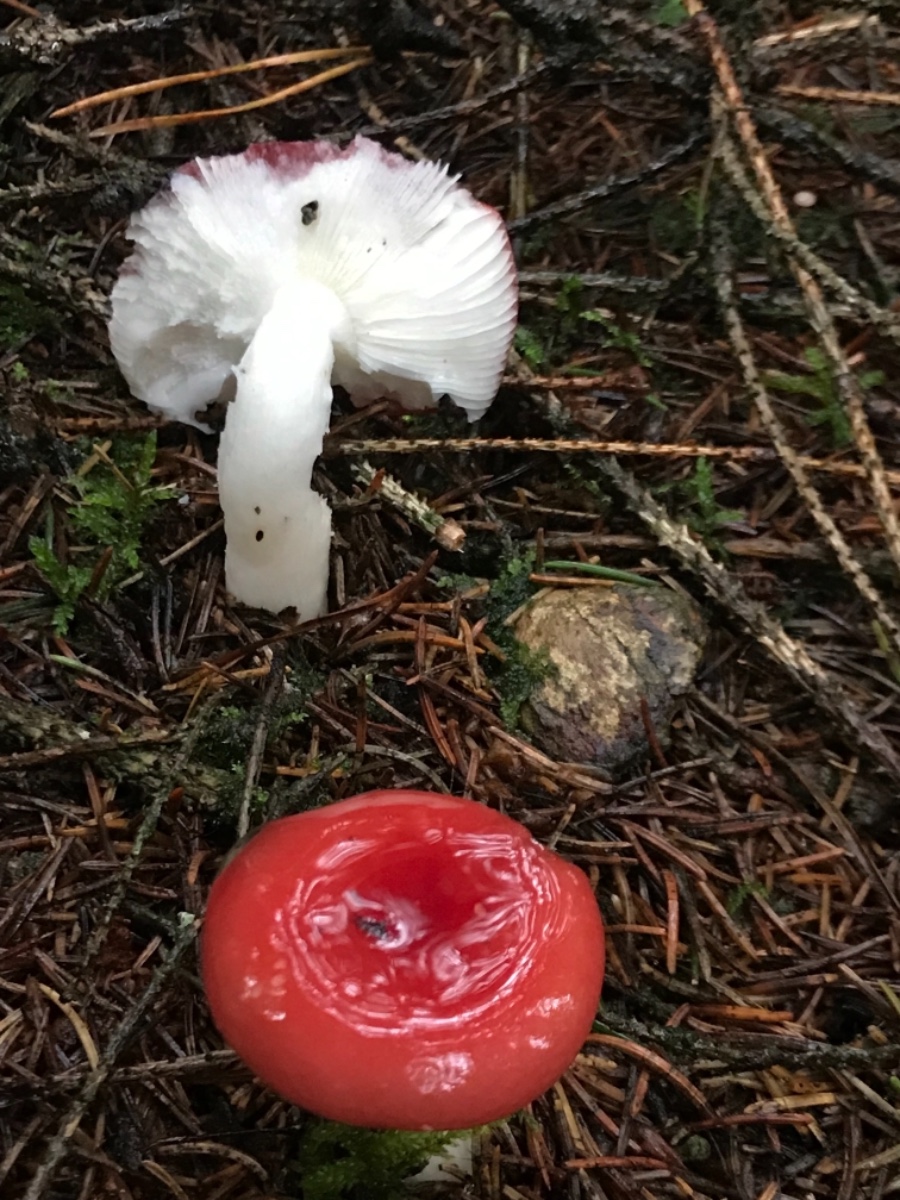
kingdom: Fungi
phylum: Basidiomycota
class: Agaricomycetes
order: Russulales
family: Russulaceae
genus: Russula
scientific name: Russula silvestris
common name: mellemstor gift-skørhat
